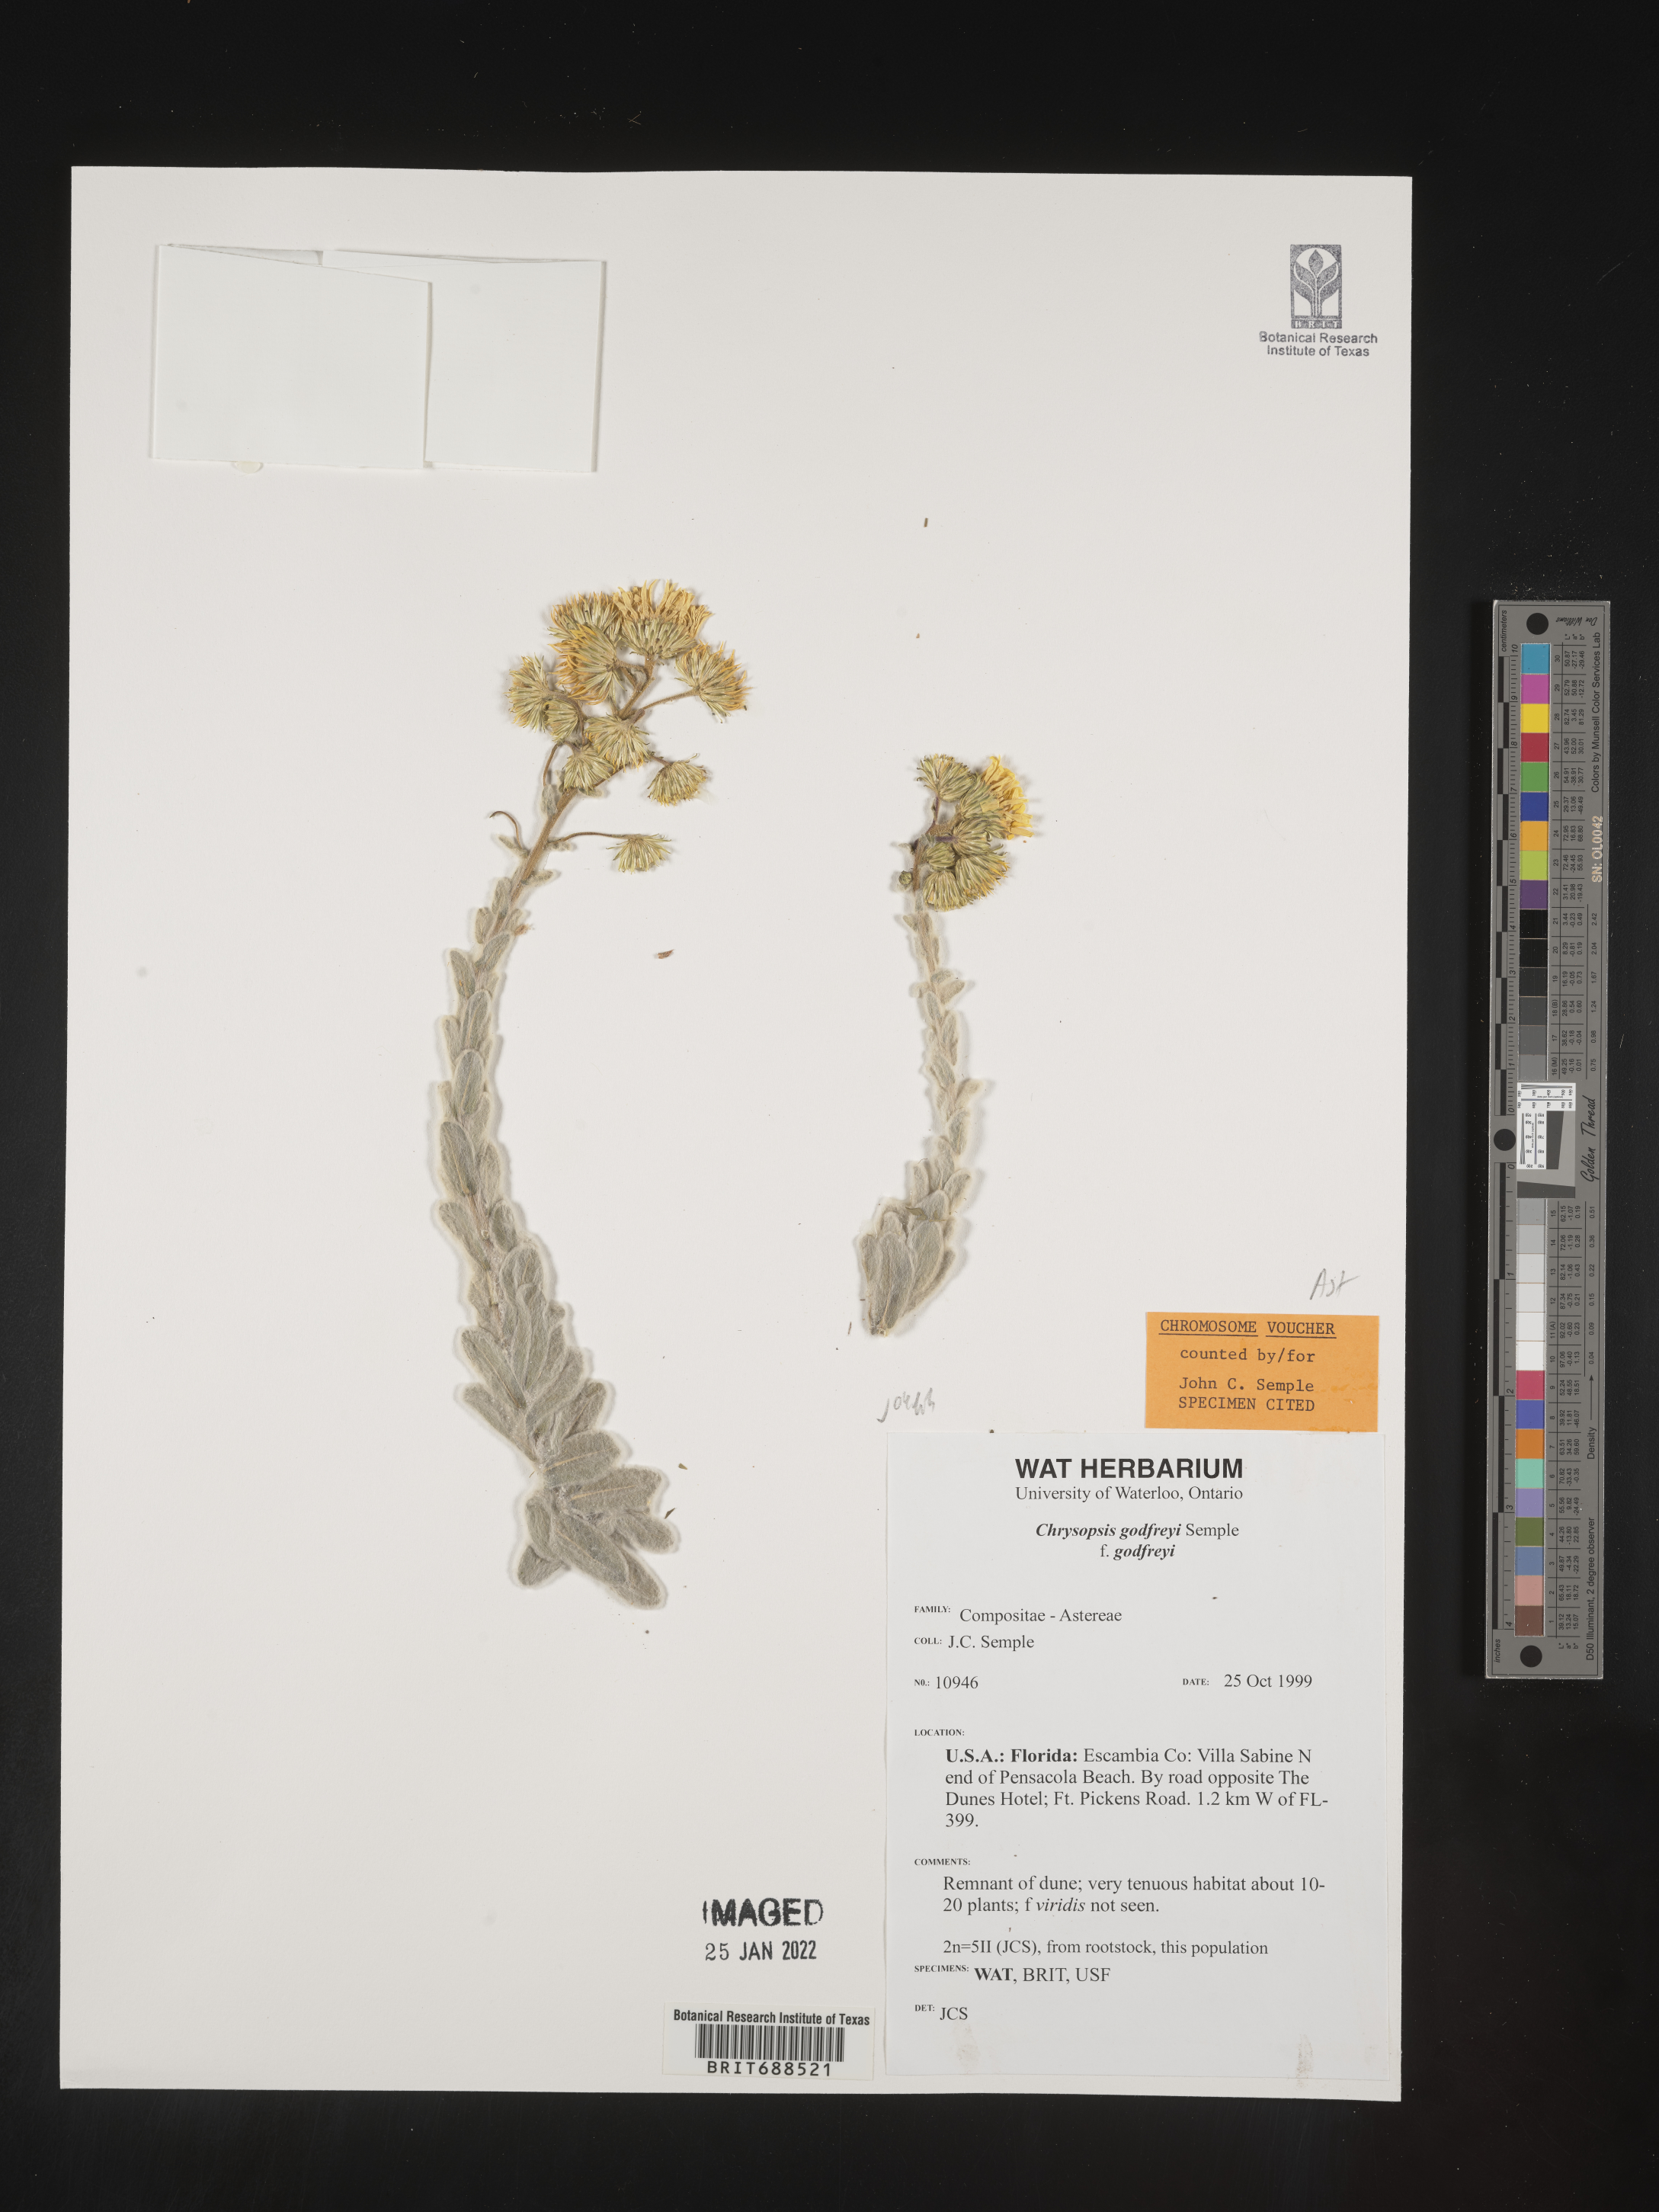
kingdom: Plantae
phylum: Tracheophyta
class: Magnoliopsida
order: Asterales
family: Asteraceae
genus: Chrysopsis
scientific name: Chrysopsis godfreyi
